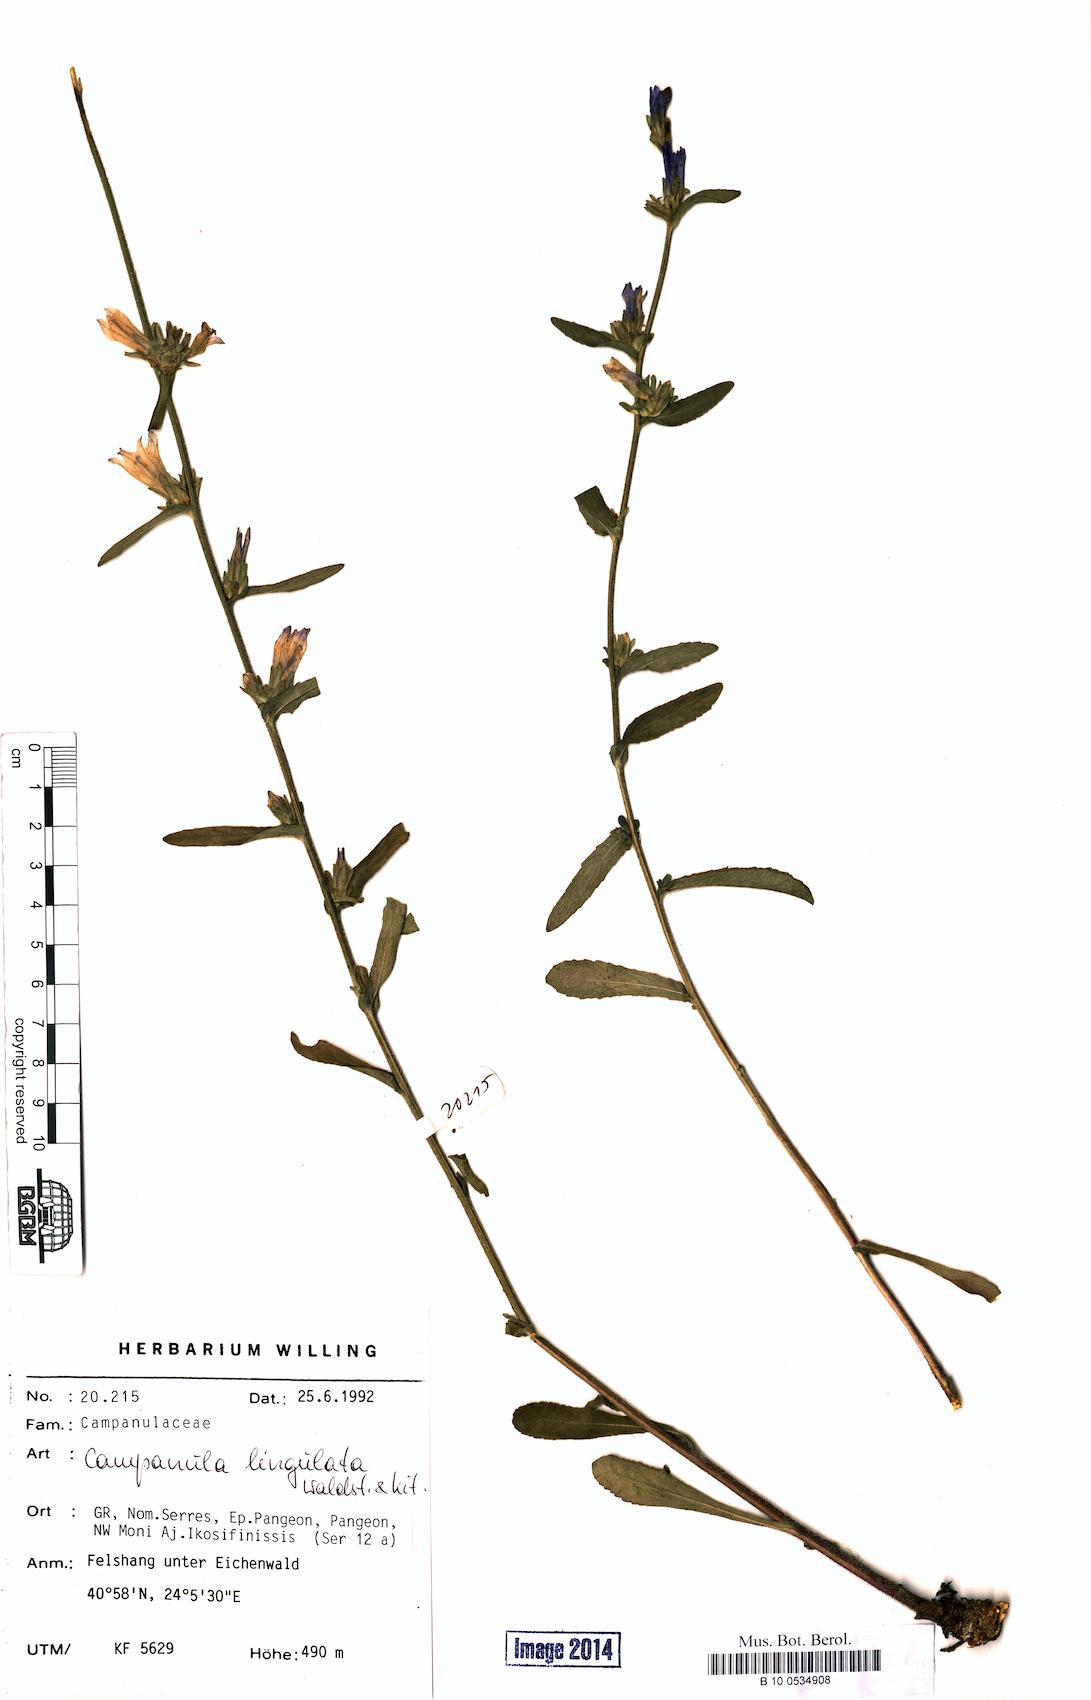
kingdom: Plantae
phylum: Tracheophyta
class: Magnoliopsida
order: Asterales
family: Campanulaceae
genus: Campanula
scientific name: Campanula lingulata
